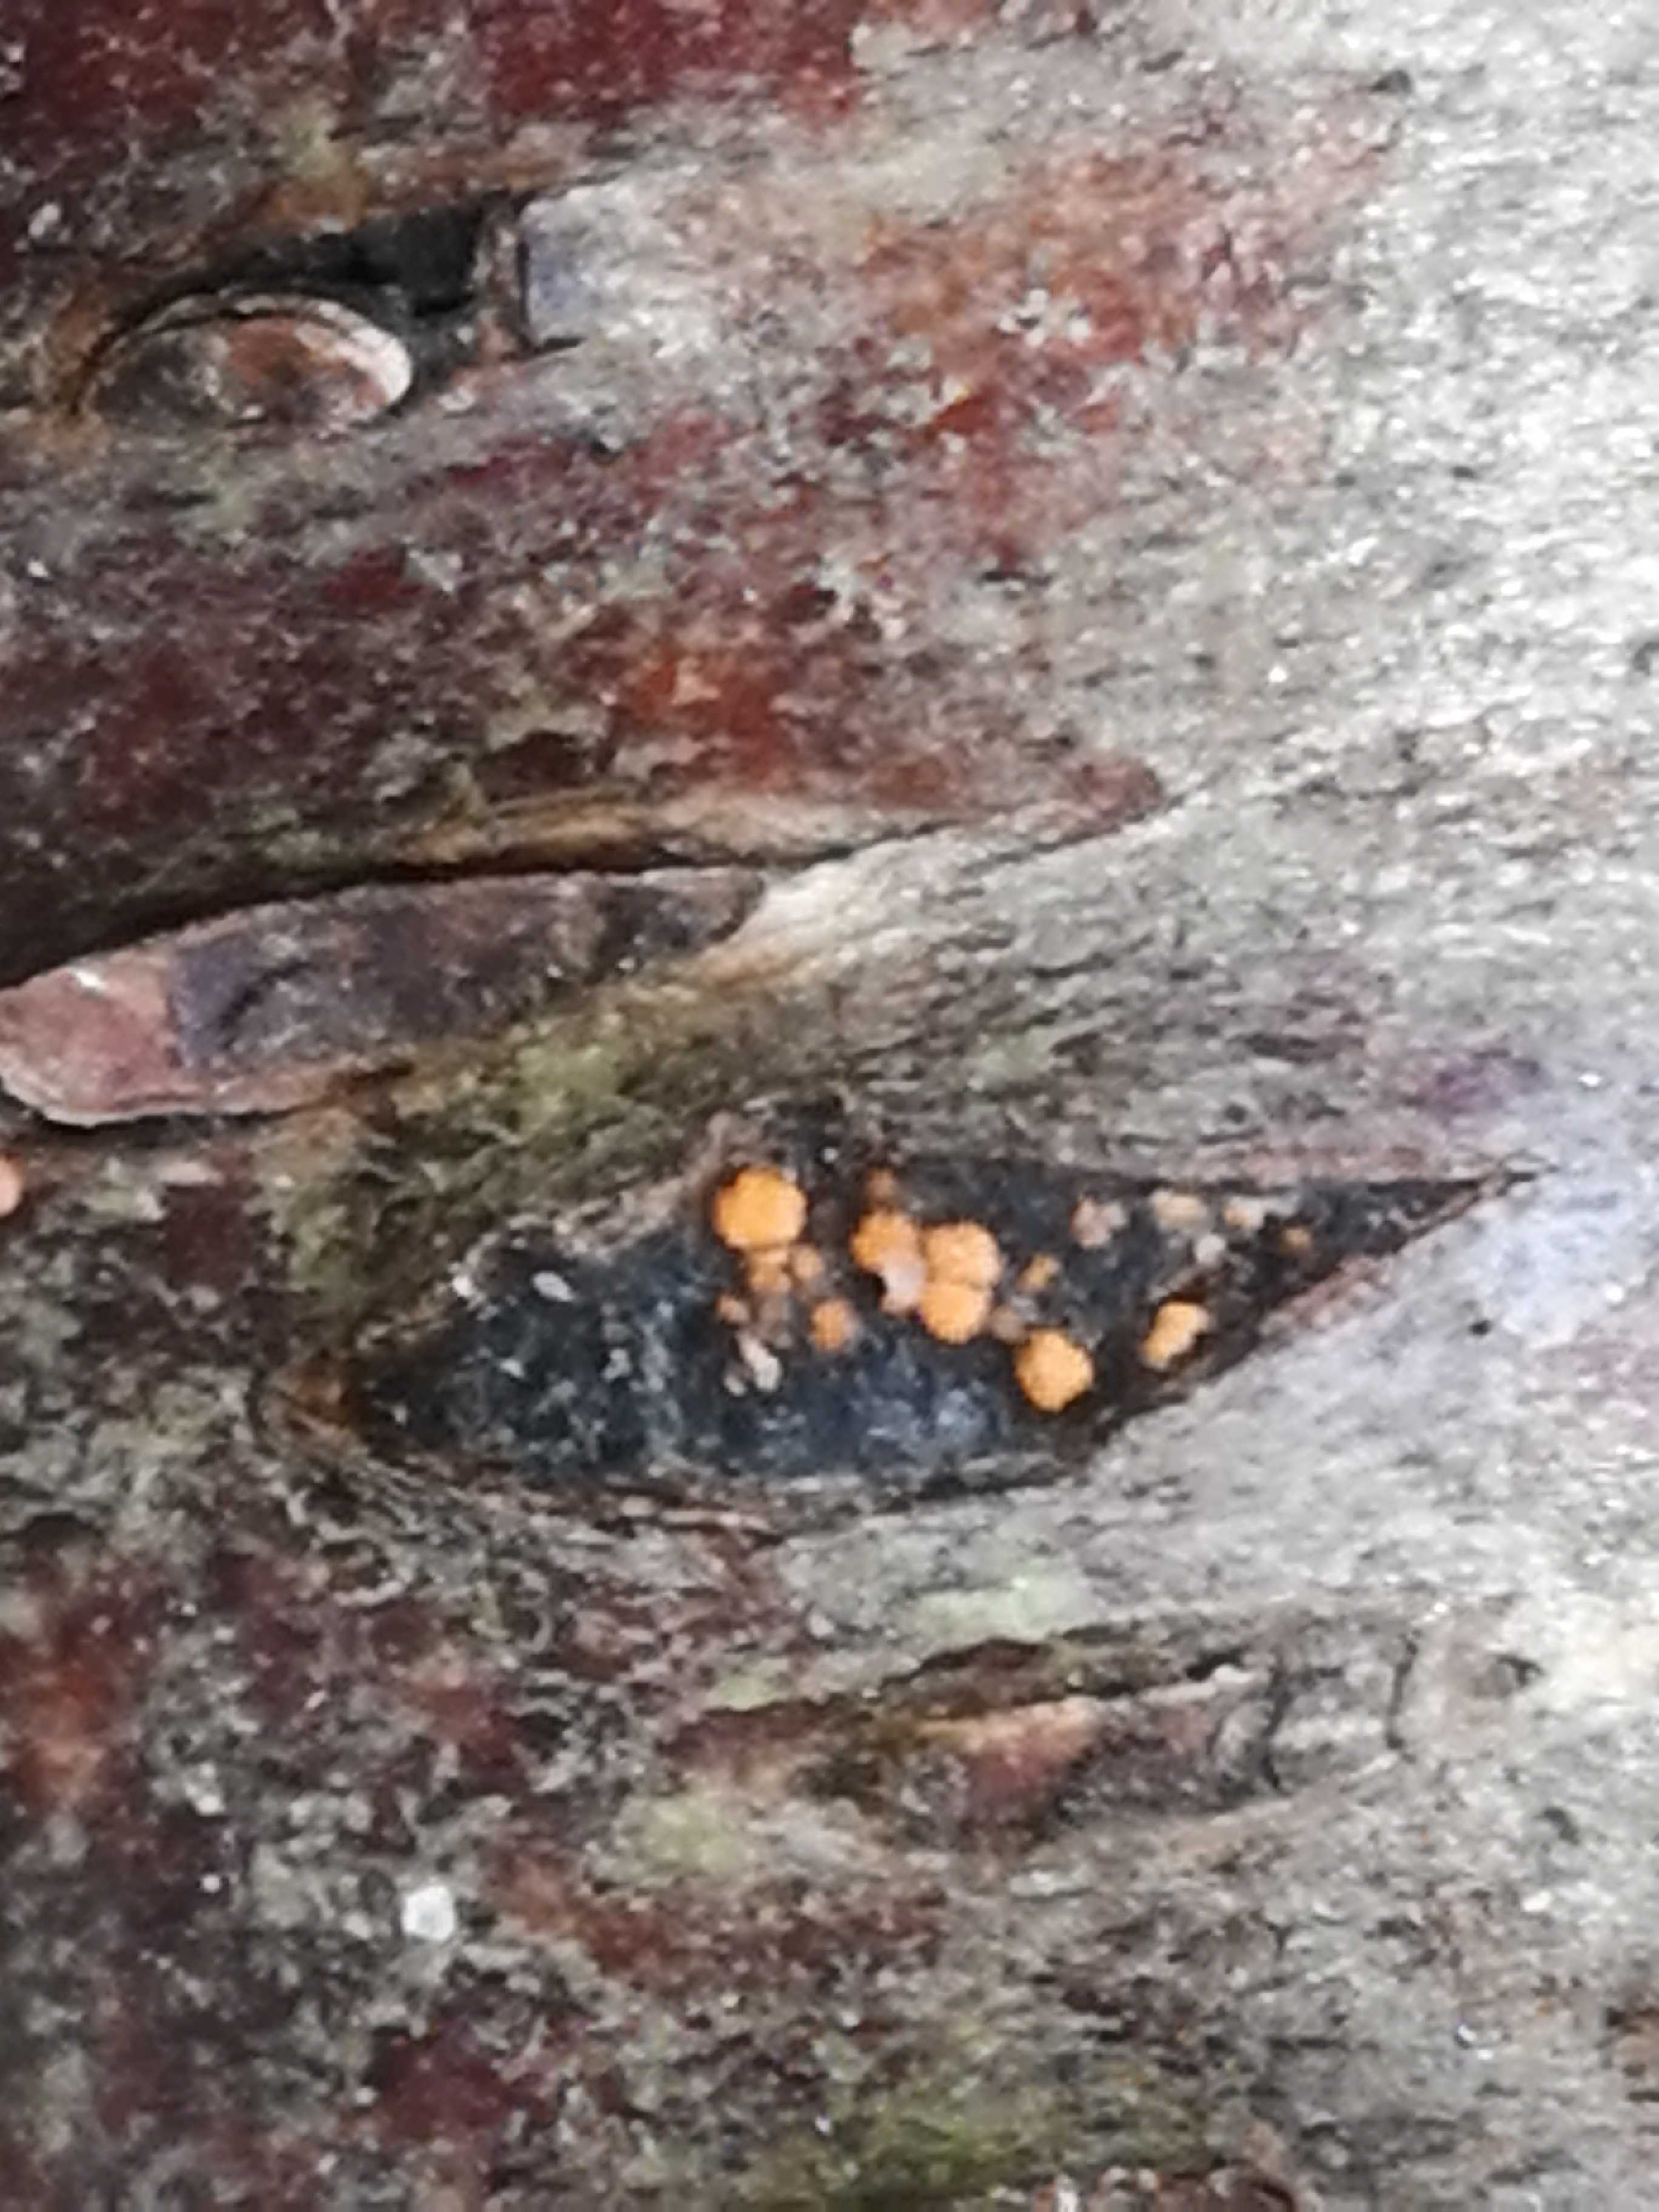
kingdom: Fungi
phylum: Ascomycota
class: Sordariomycetes
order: Hypocreales
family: Nectriaceae
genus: Dialonectria
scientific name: Dialonectria magnusiana
